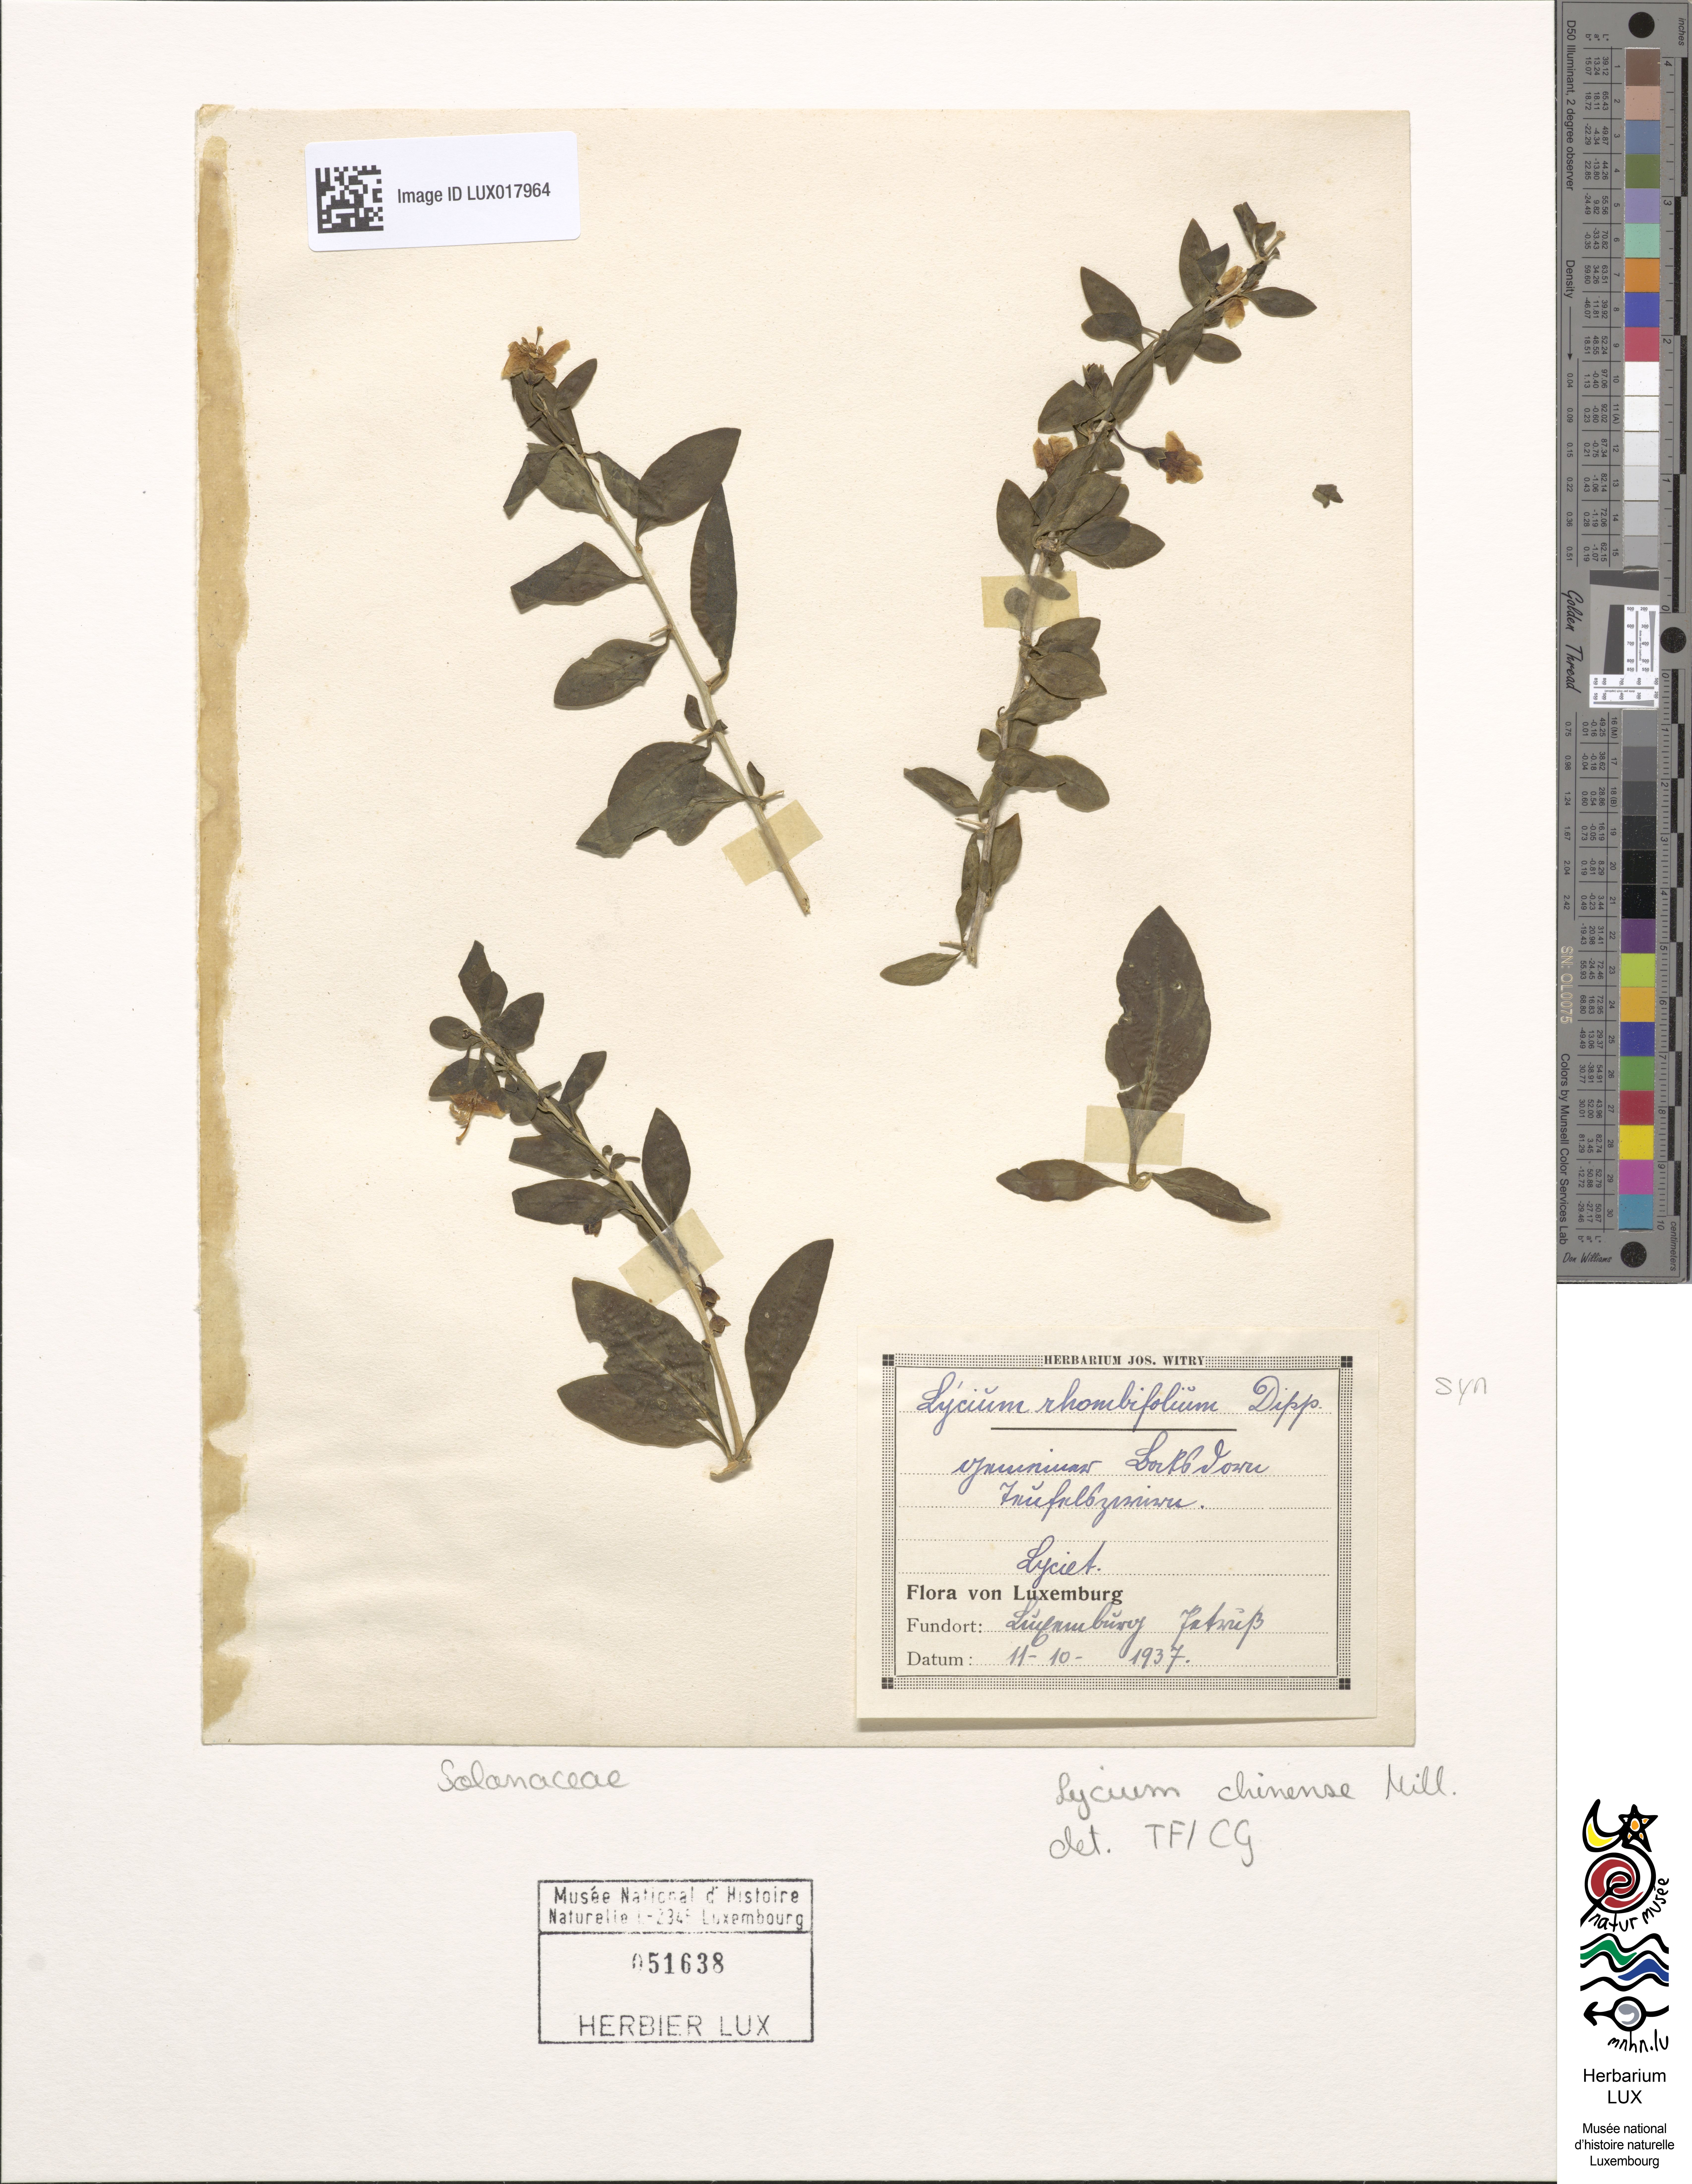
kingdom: Plantae
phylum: Tracheophyta
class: Magnoliopsida
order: Solanales
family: Solanaceae
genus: Lycium
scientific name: Lycium chinense
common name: Chinese teaplant
